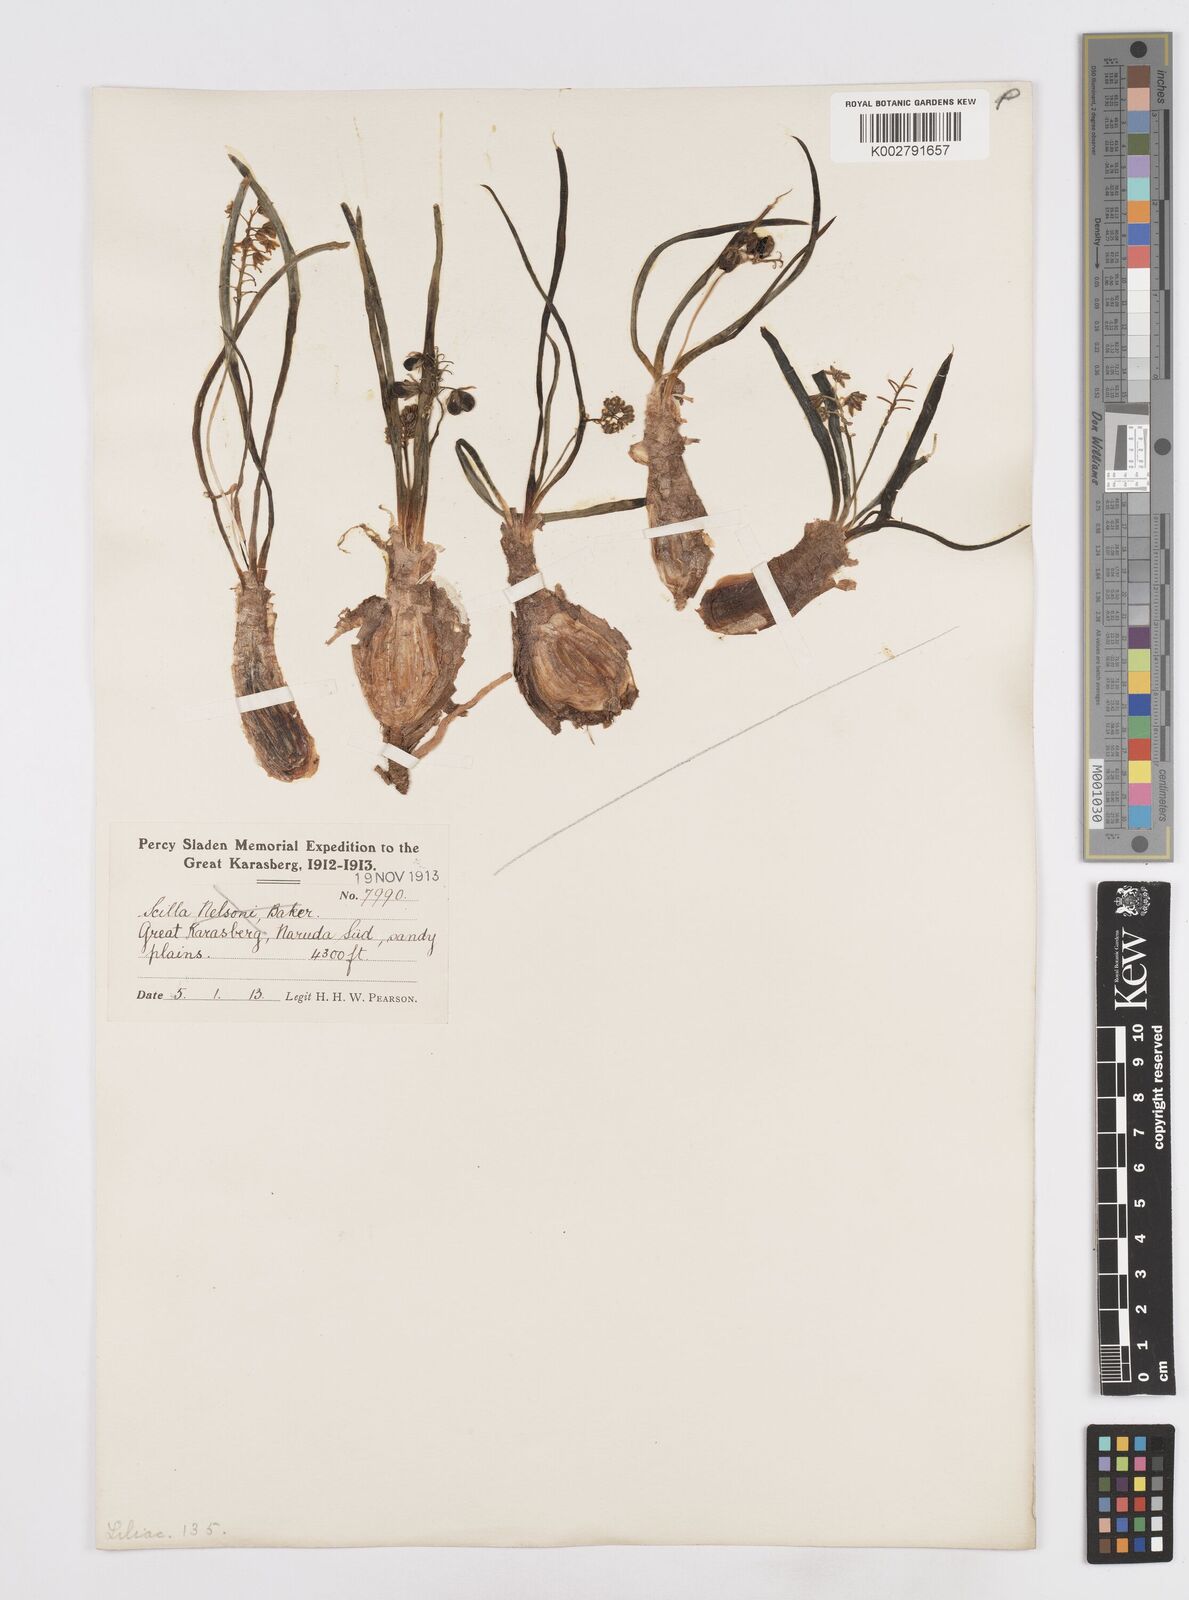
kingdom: Plantae
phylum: Tracheophyta
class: Liliopsida
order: Asparagales
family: Asparagaceae
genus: Scilla
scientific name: Scilla
